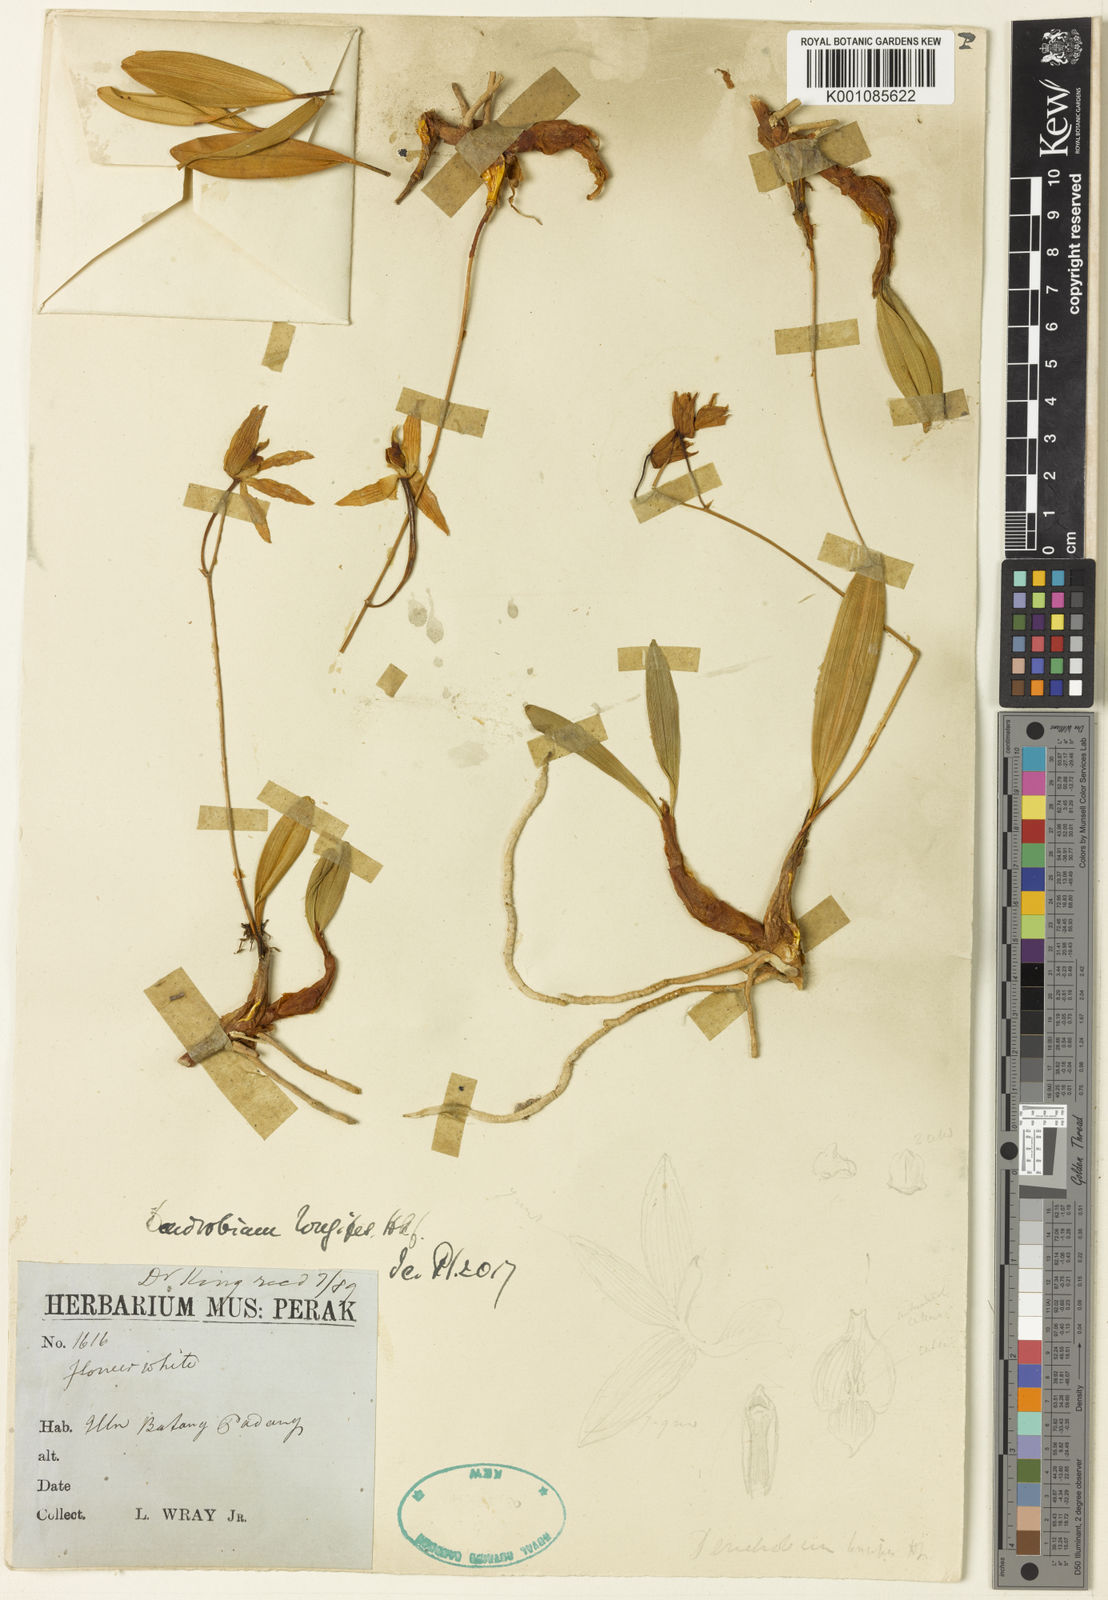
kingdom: Plantae
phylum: Tracheophyta
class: Liliopsida
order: Asparagales
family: Orchidaceae
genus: Dendrobium
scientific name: Dendrobium longipes
